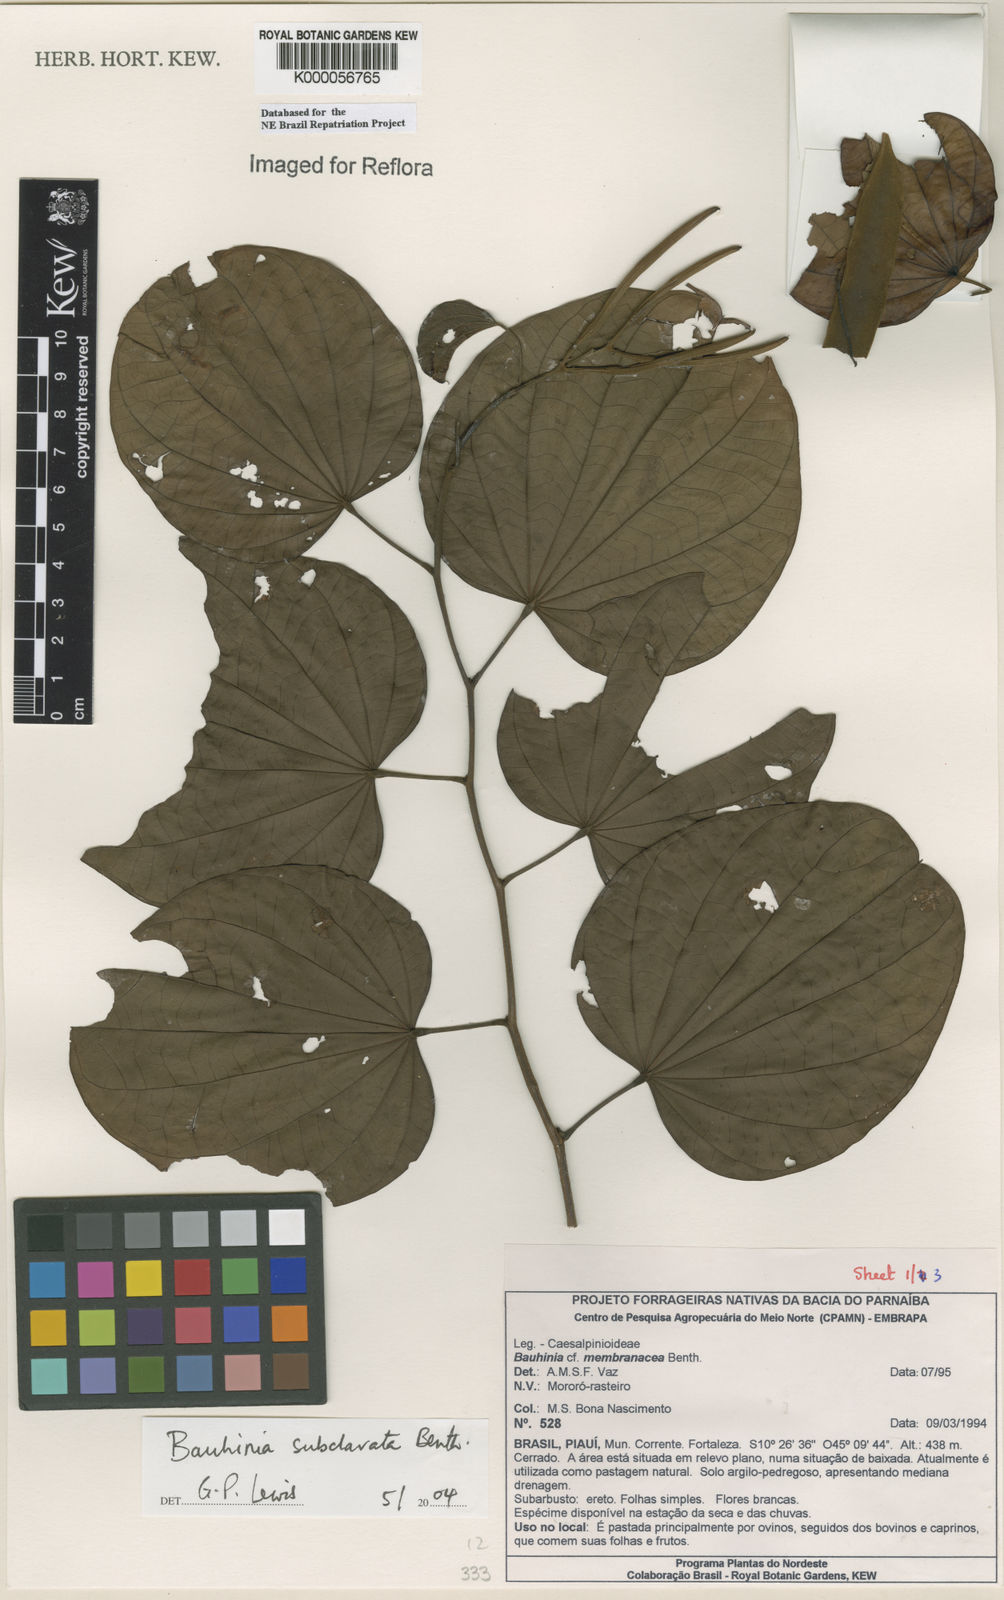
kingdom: Plantae
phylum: Tracheophyta
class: Magnoliopsida
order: Fabales
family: Fabaceae
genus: Bauhinia
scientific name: Bauhinia membranacea
